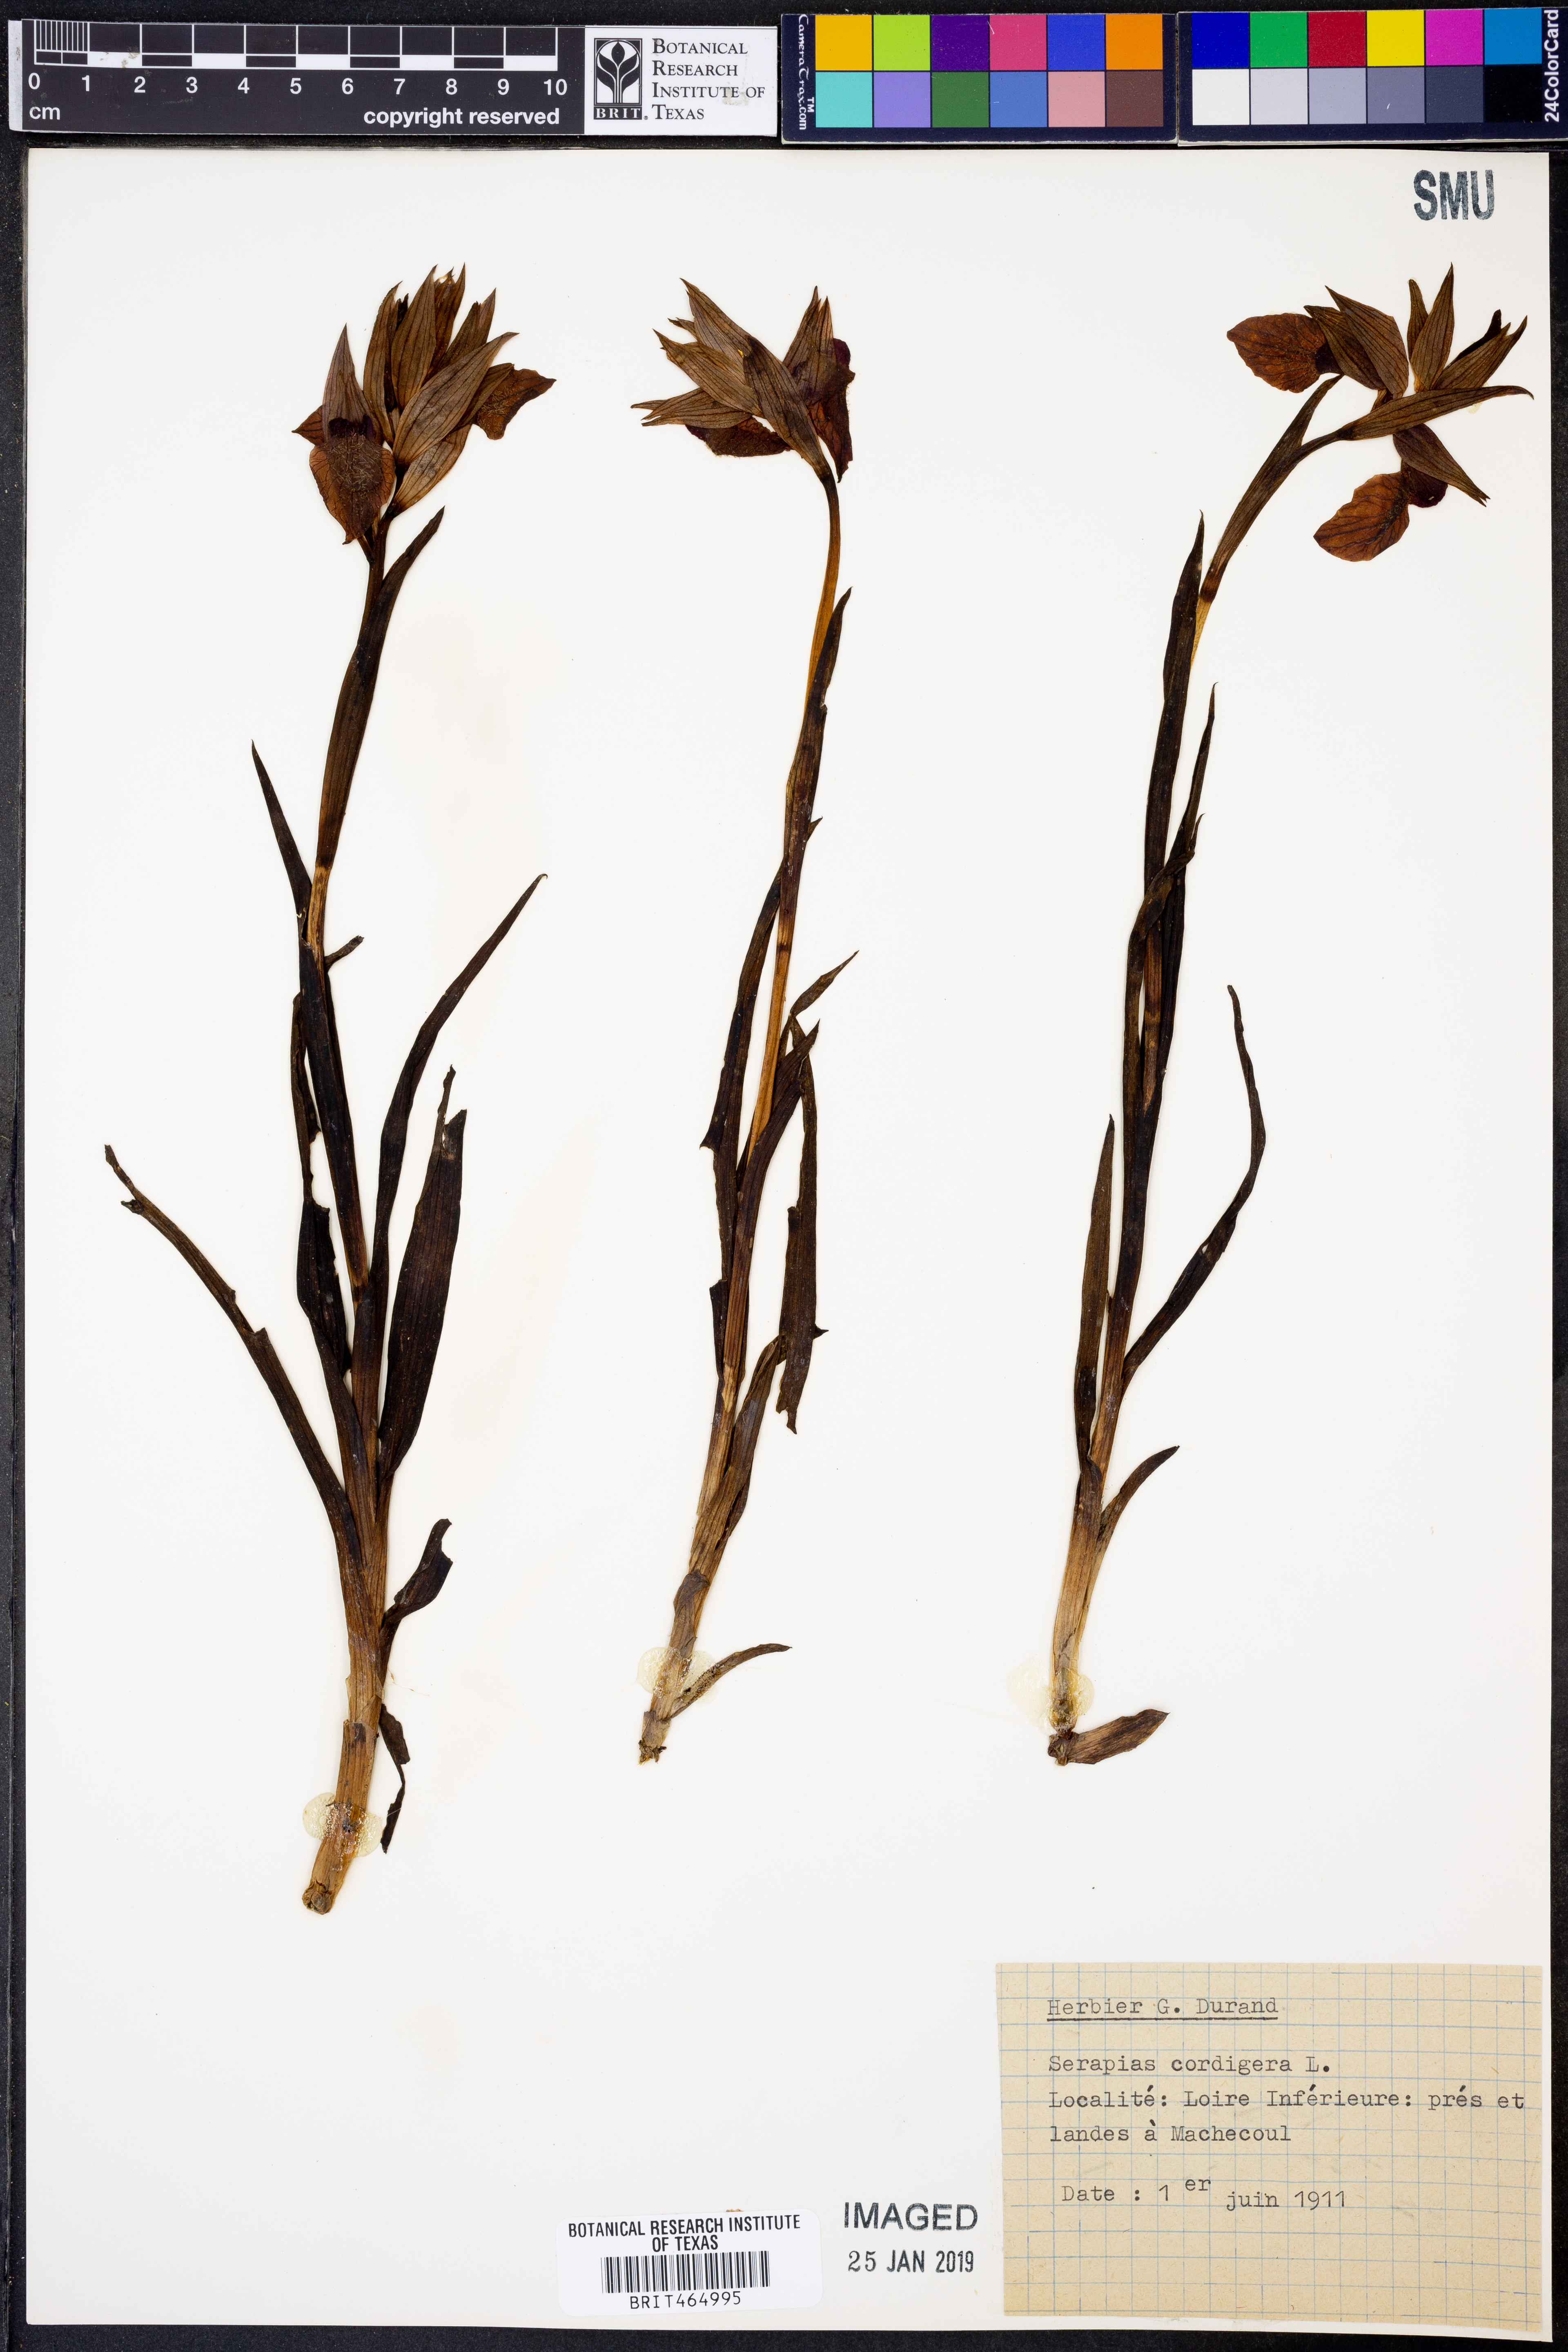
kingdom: Plantae
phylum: Tracheophyta
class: Liliopsida
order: Asparagales
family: Orchidaceae
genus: Serapias
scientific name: Serapias cordigera
